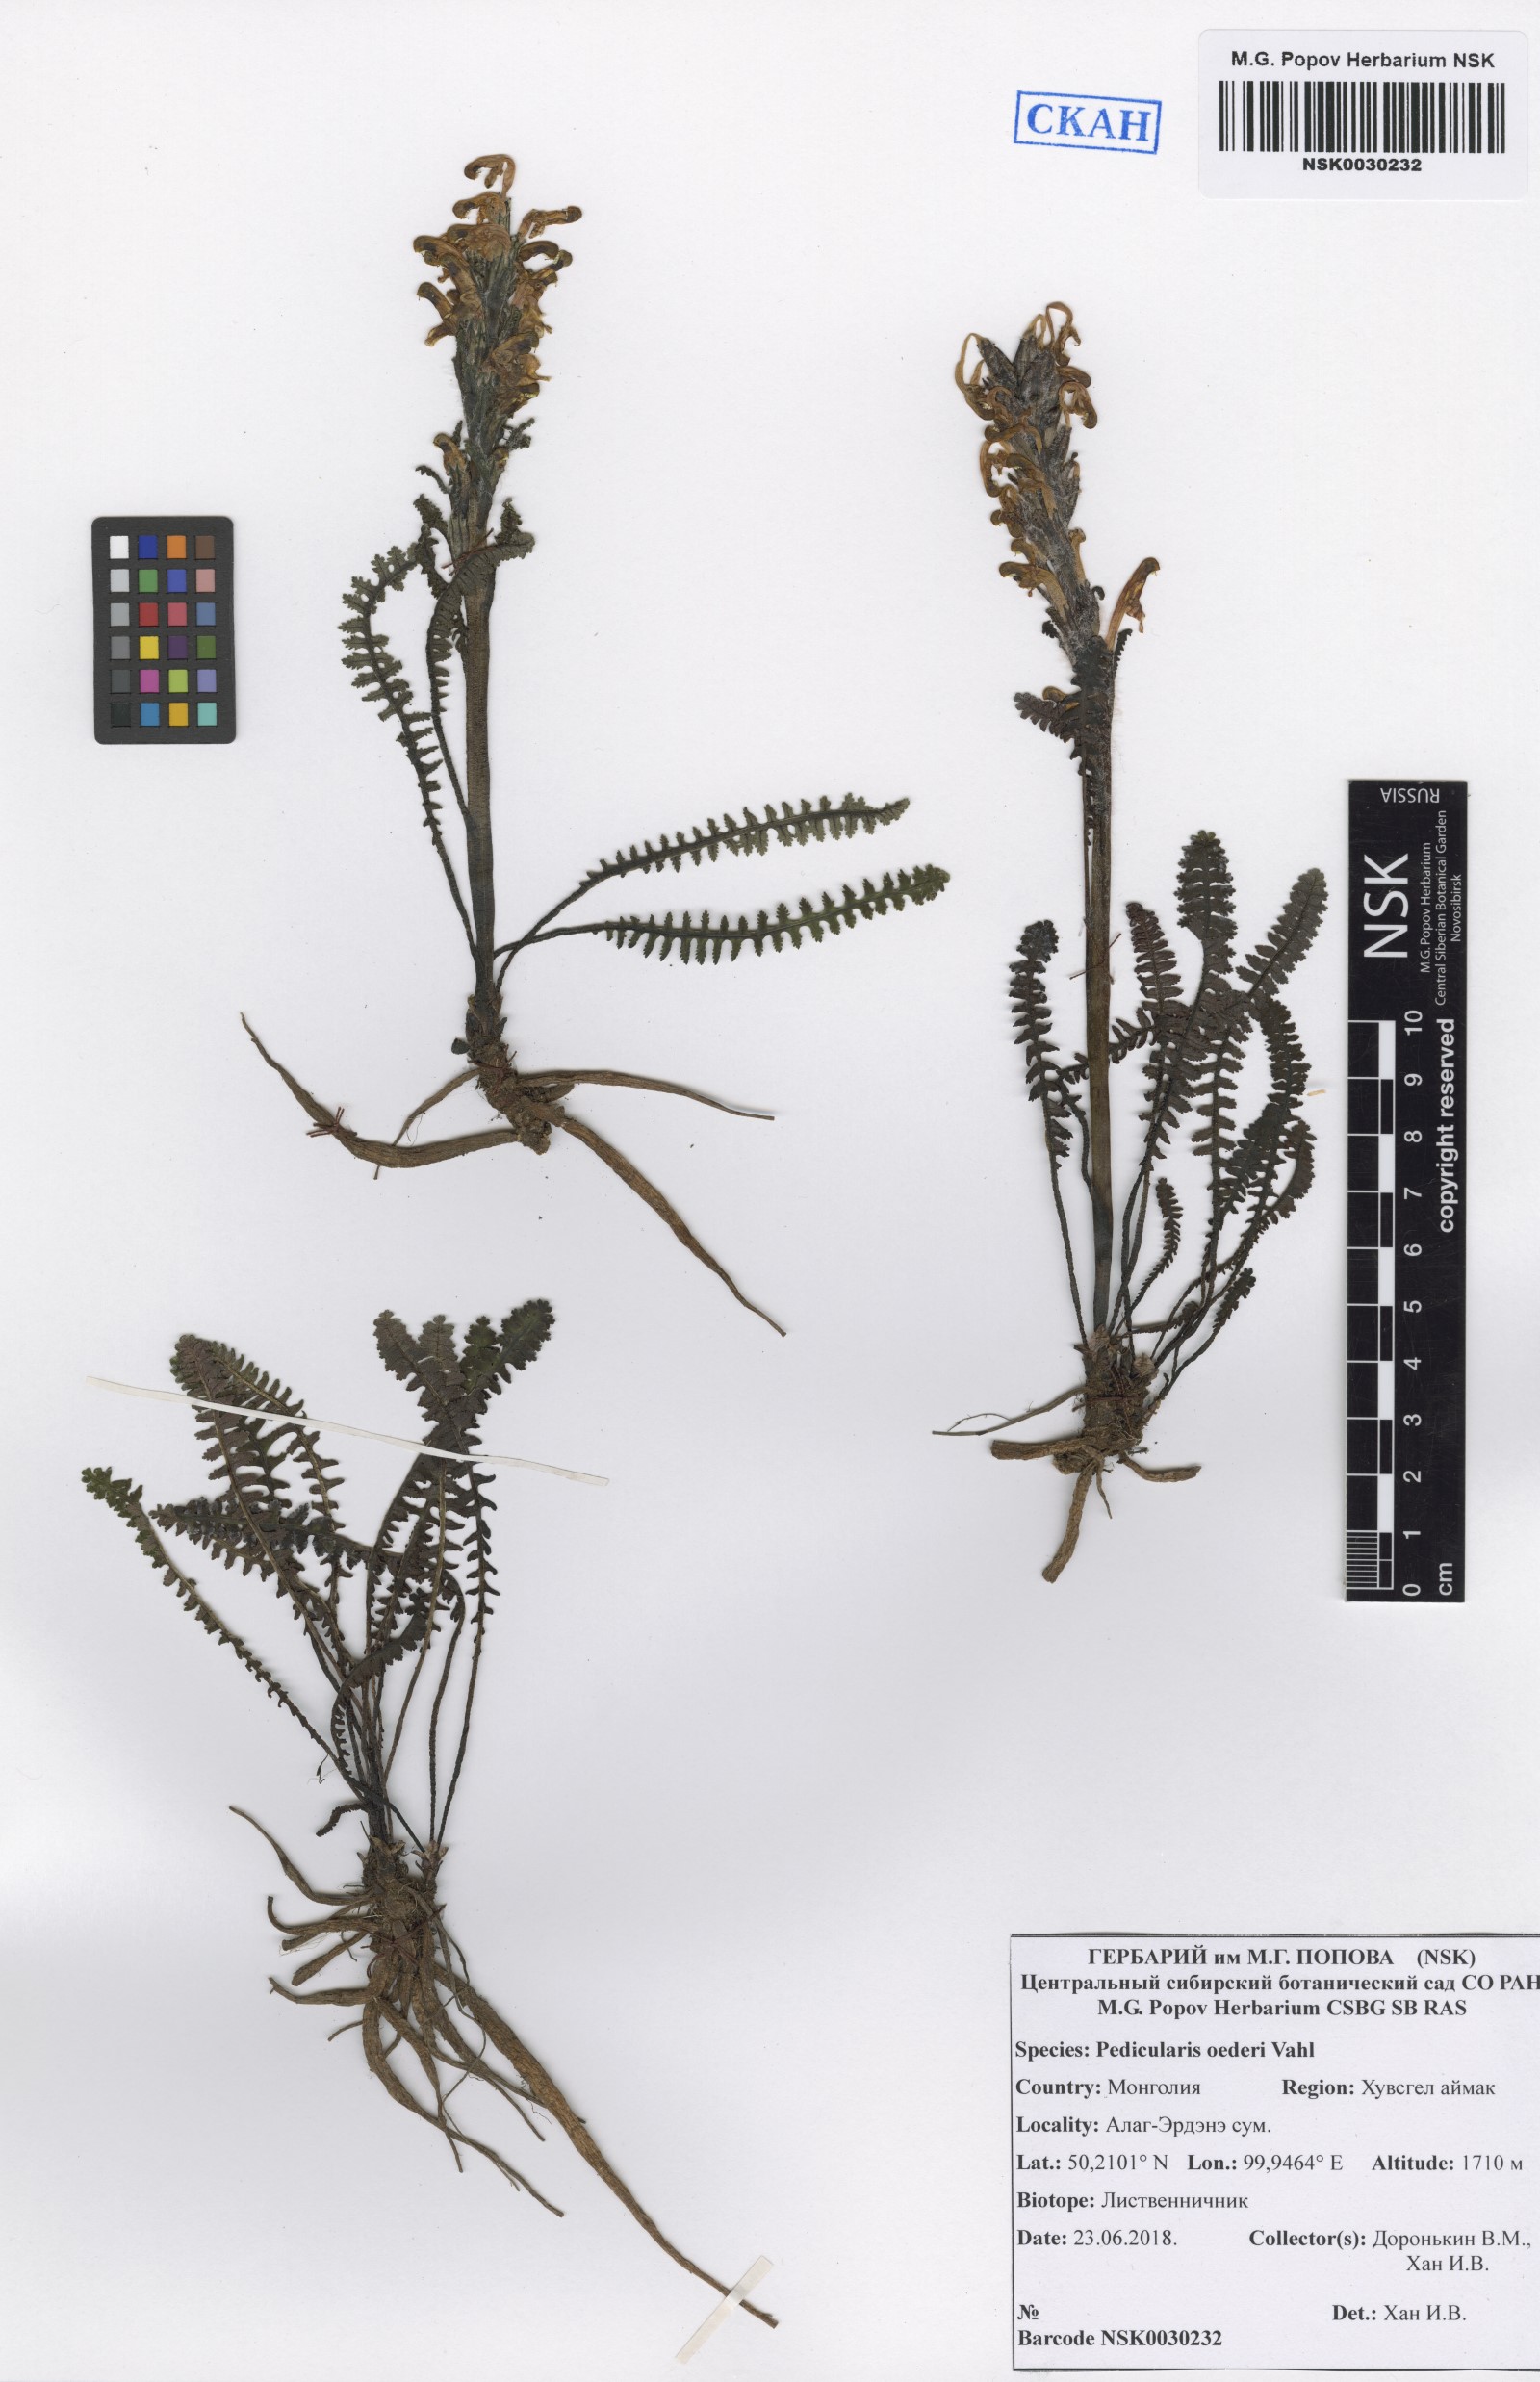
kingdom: Plantae
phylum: Tracheophyta
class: Magnoliopsida
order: Lamiales
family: Orobanchaceae
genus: Pedicularis
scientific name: Pedicularis oederi
